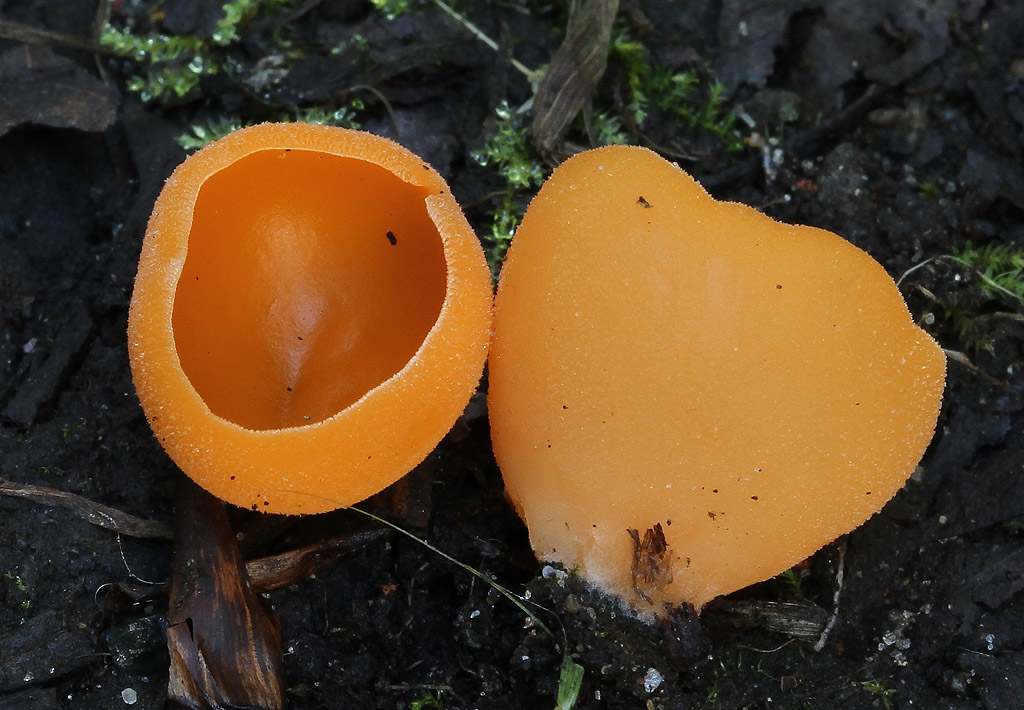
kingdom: Fungi
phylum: Ascomycota
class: Pezizomycetes
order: Pezizales
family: Pyronemataceae
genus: Aleuria
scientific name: Aleuria aurantia
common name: almindelig orangebæger
